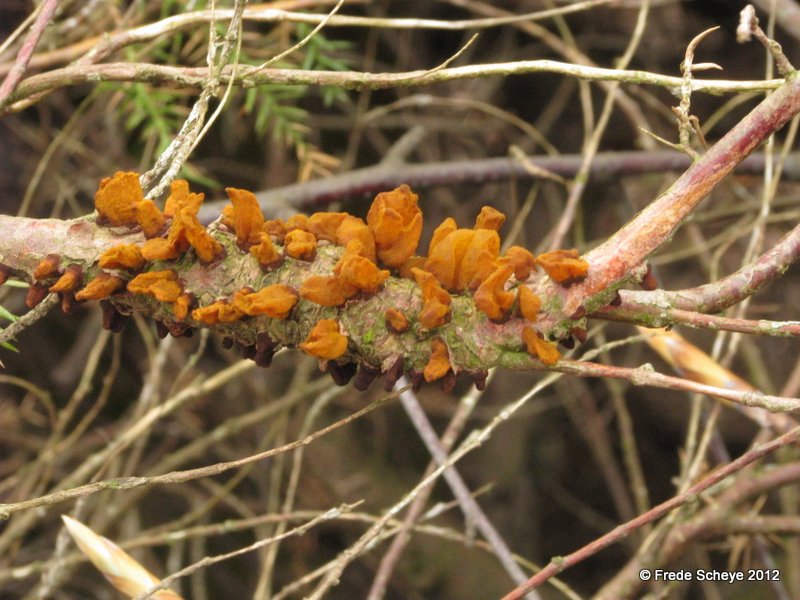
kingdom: Fungi
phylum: Basidiomycota
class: Pucciniomycetes
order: Pucciniales
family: Gymnosporangiaceae
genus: Gymnosporangium
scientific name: Gymnosporangium sabinae
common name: pæregitter-bævrerust
